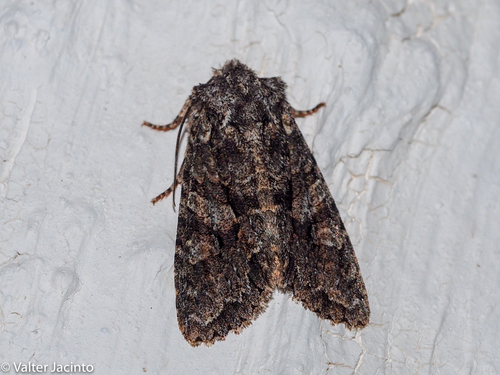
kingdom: Animalia
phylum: Arthropoda
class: Insecta
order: Lepidoptera
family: Noctuidae
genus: Dryobotodes
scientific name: Dryobotodes eremita
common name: Brindled green
